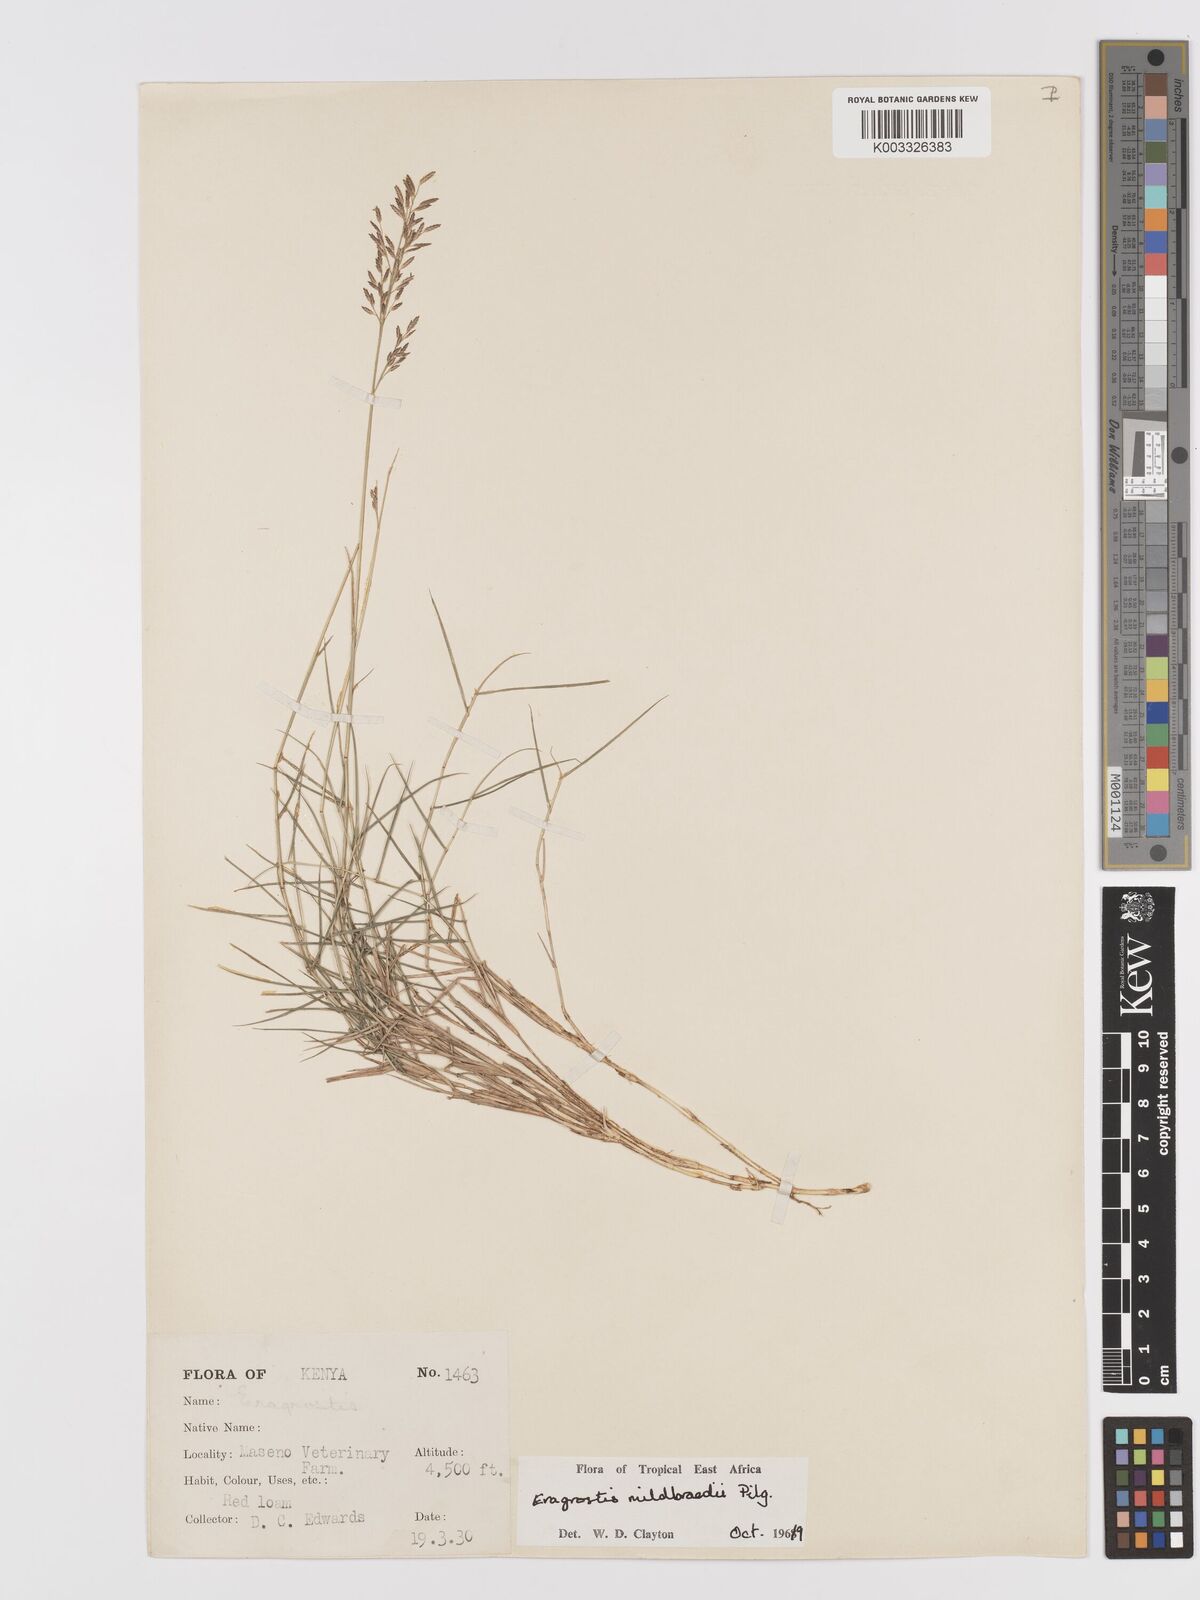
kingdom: Plantae
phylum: Tracheophyta
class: Liliopsida
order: Poales
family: Poaceae
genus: Eragrostis
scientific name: Eragrostis mildbraedii
